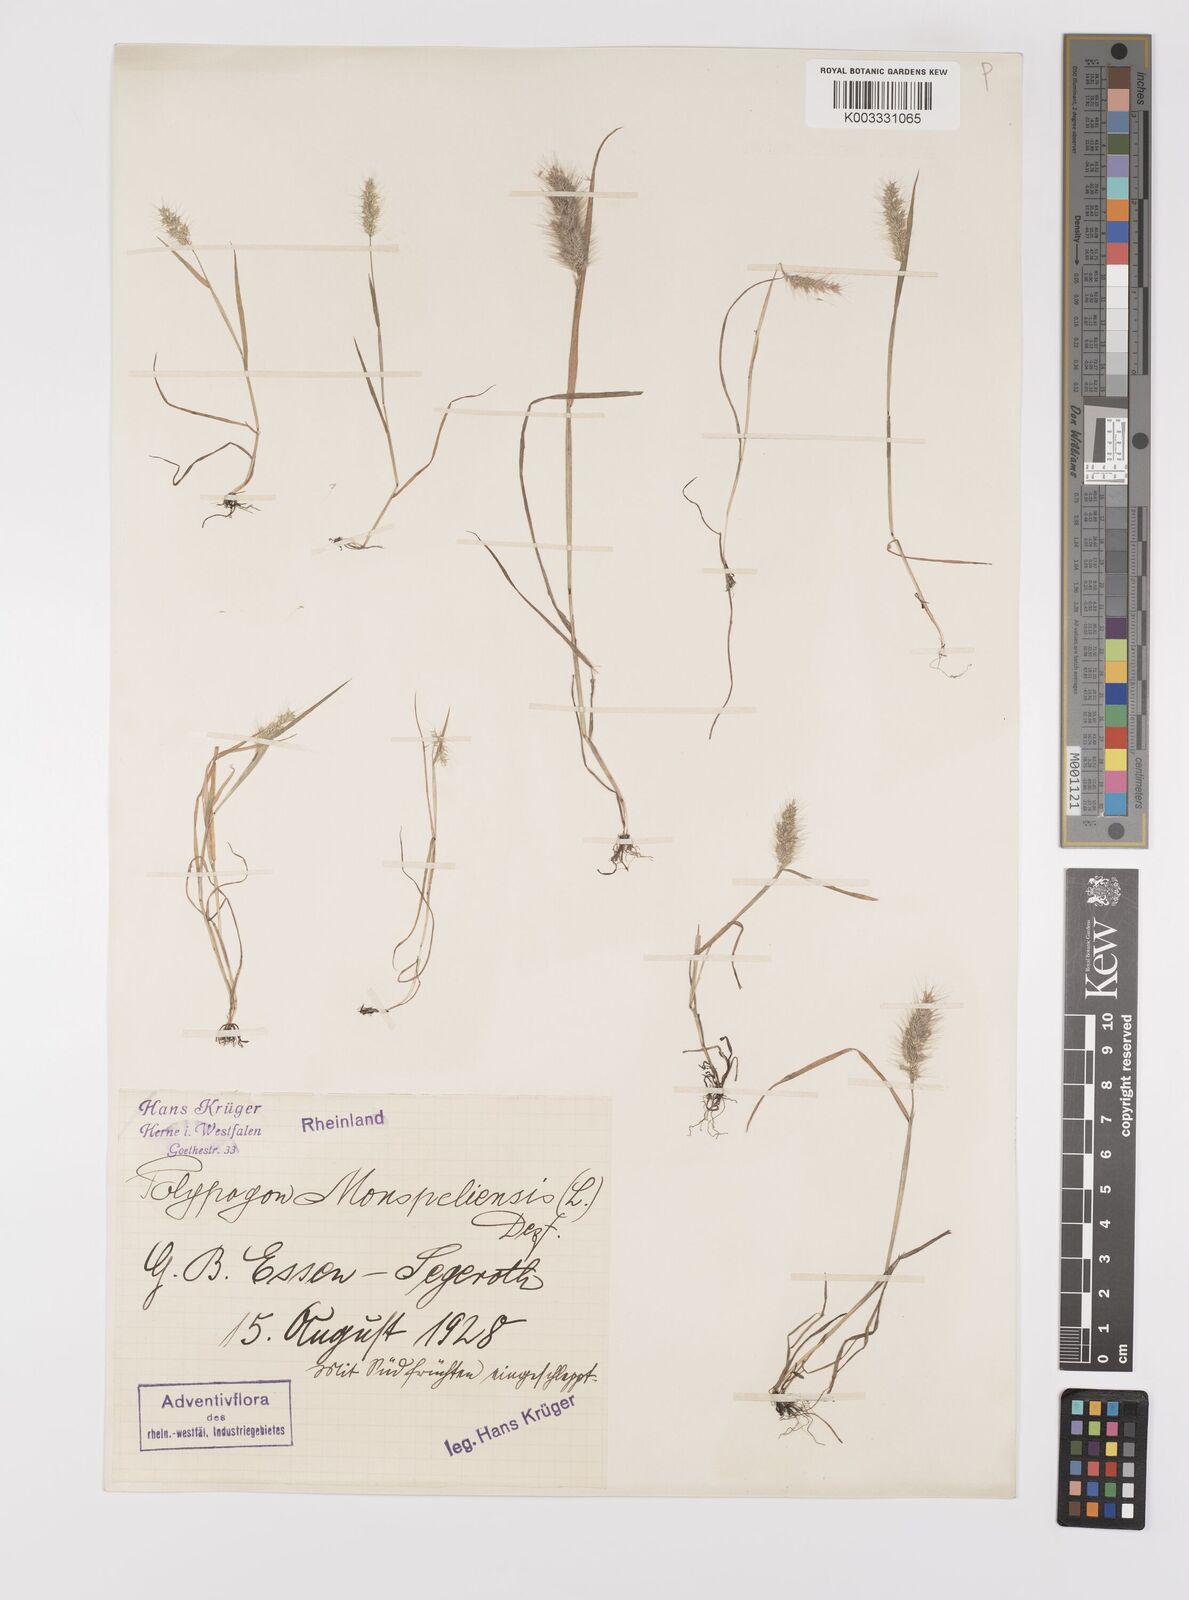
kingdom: Plantae
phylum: Tracheophyta
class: Liliopsida
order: Poales
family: Poaceae
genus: Polypogon
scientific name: Polypogon monspeliensis
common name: Annual rabbitsfoot grass
